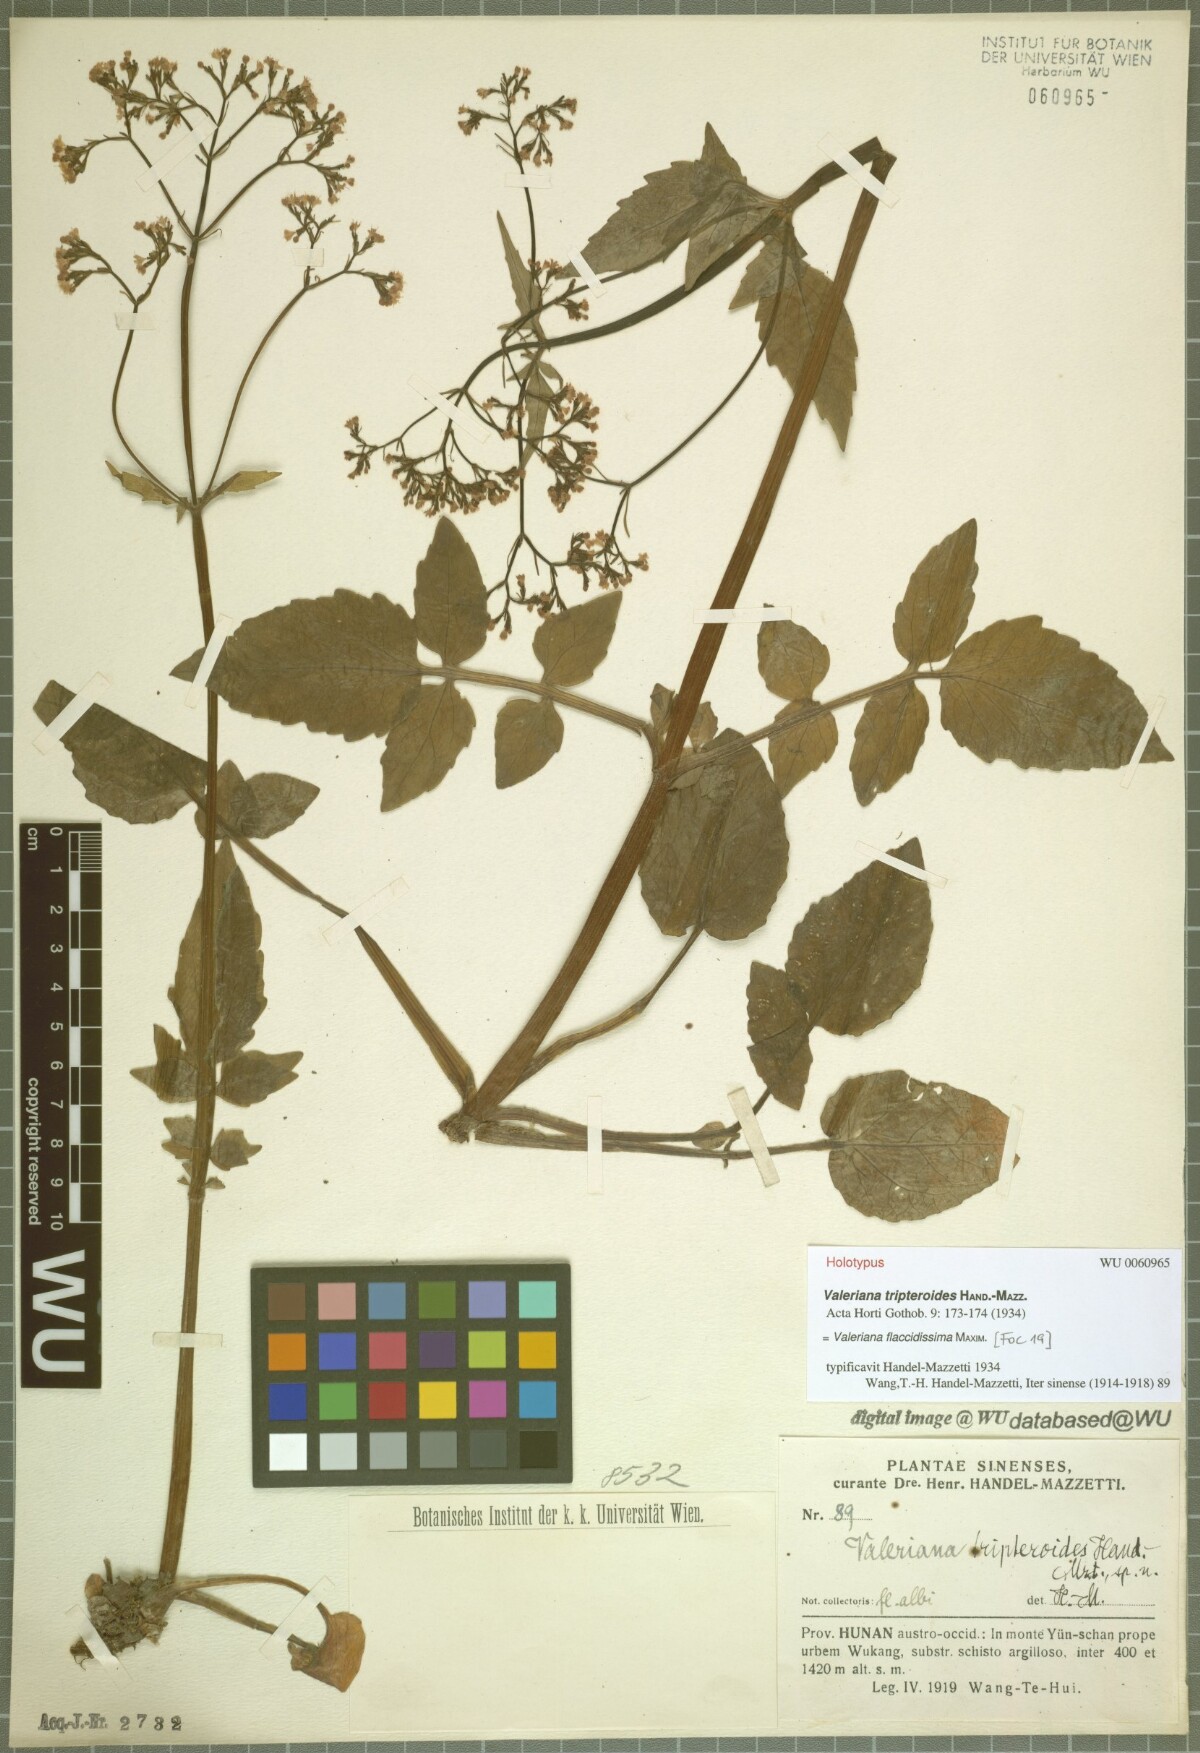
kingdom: Plantae
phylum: Tracheophyta
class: Magnoliopsida
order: Dipsacales
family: Caprifoliaceae
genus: Valeriana
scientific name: Valeriana flaccidissima
